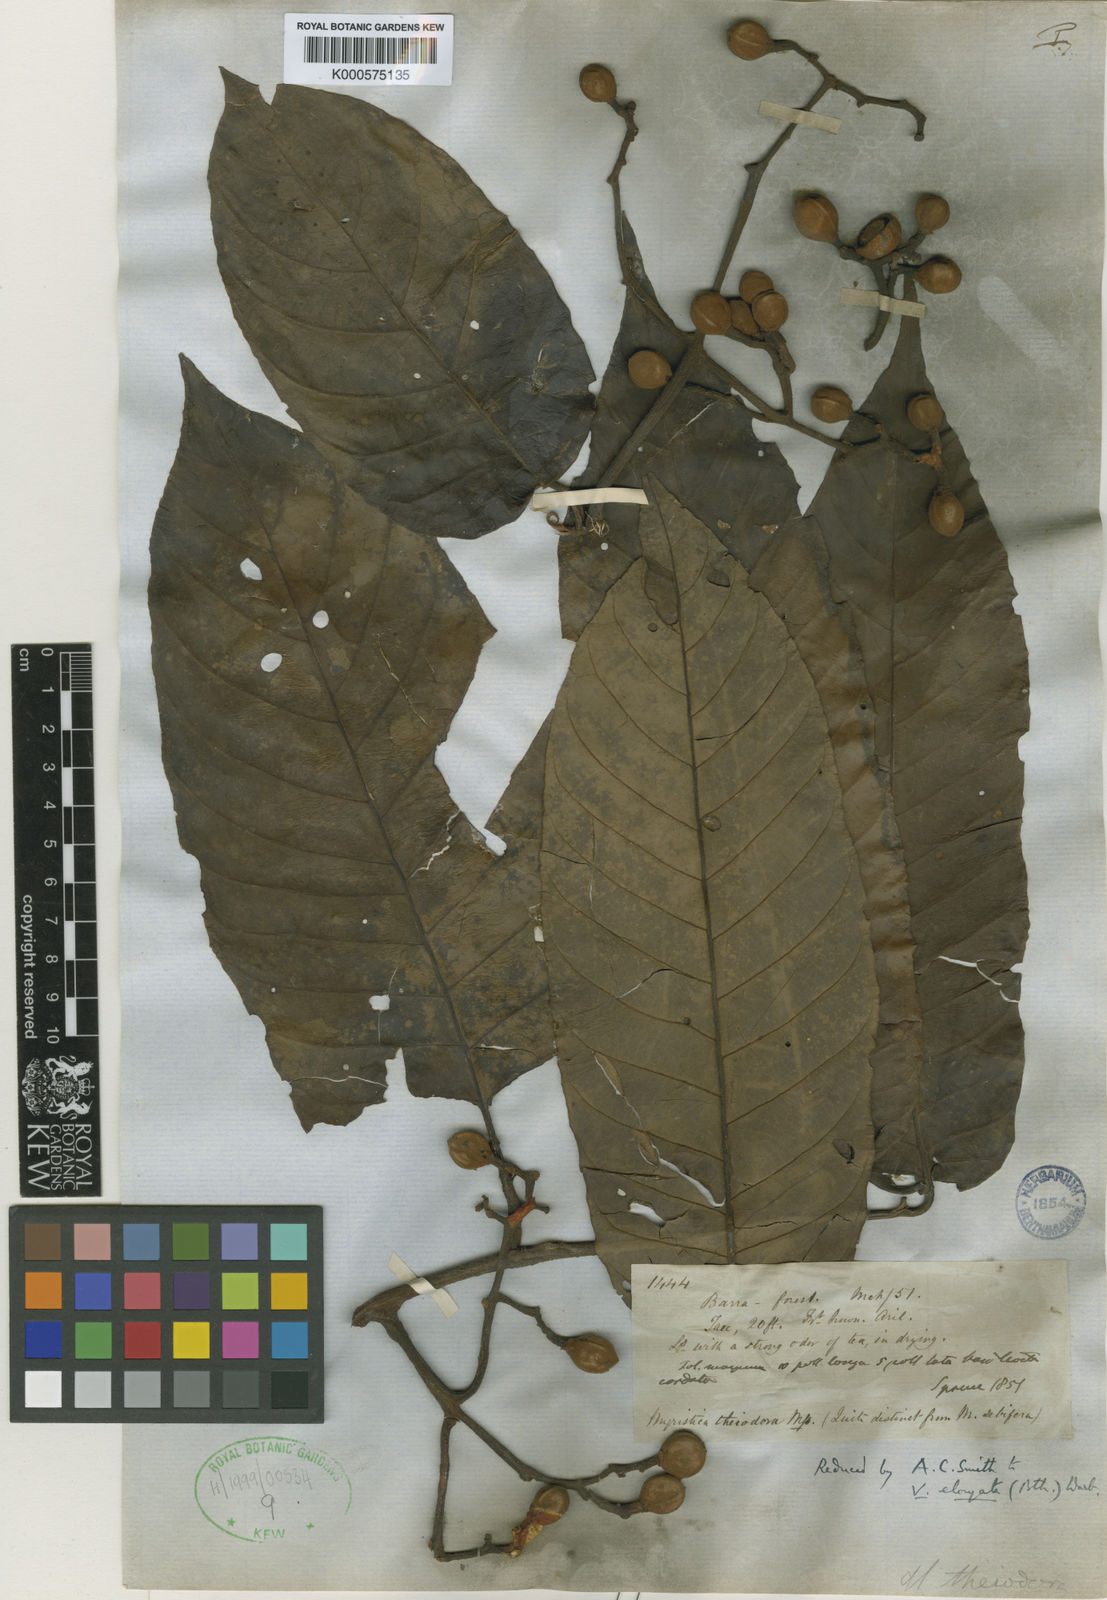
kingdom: Plantae
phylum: Tracheophyta
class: Magnoliopsida
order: Magnoliales
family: Myristicaceae
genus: Virola
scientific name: Virola elongata
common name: Sacred virola
